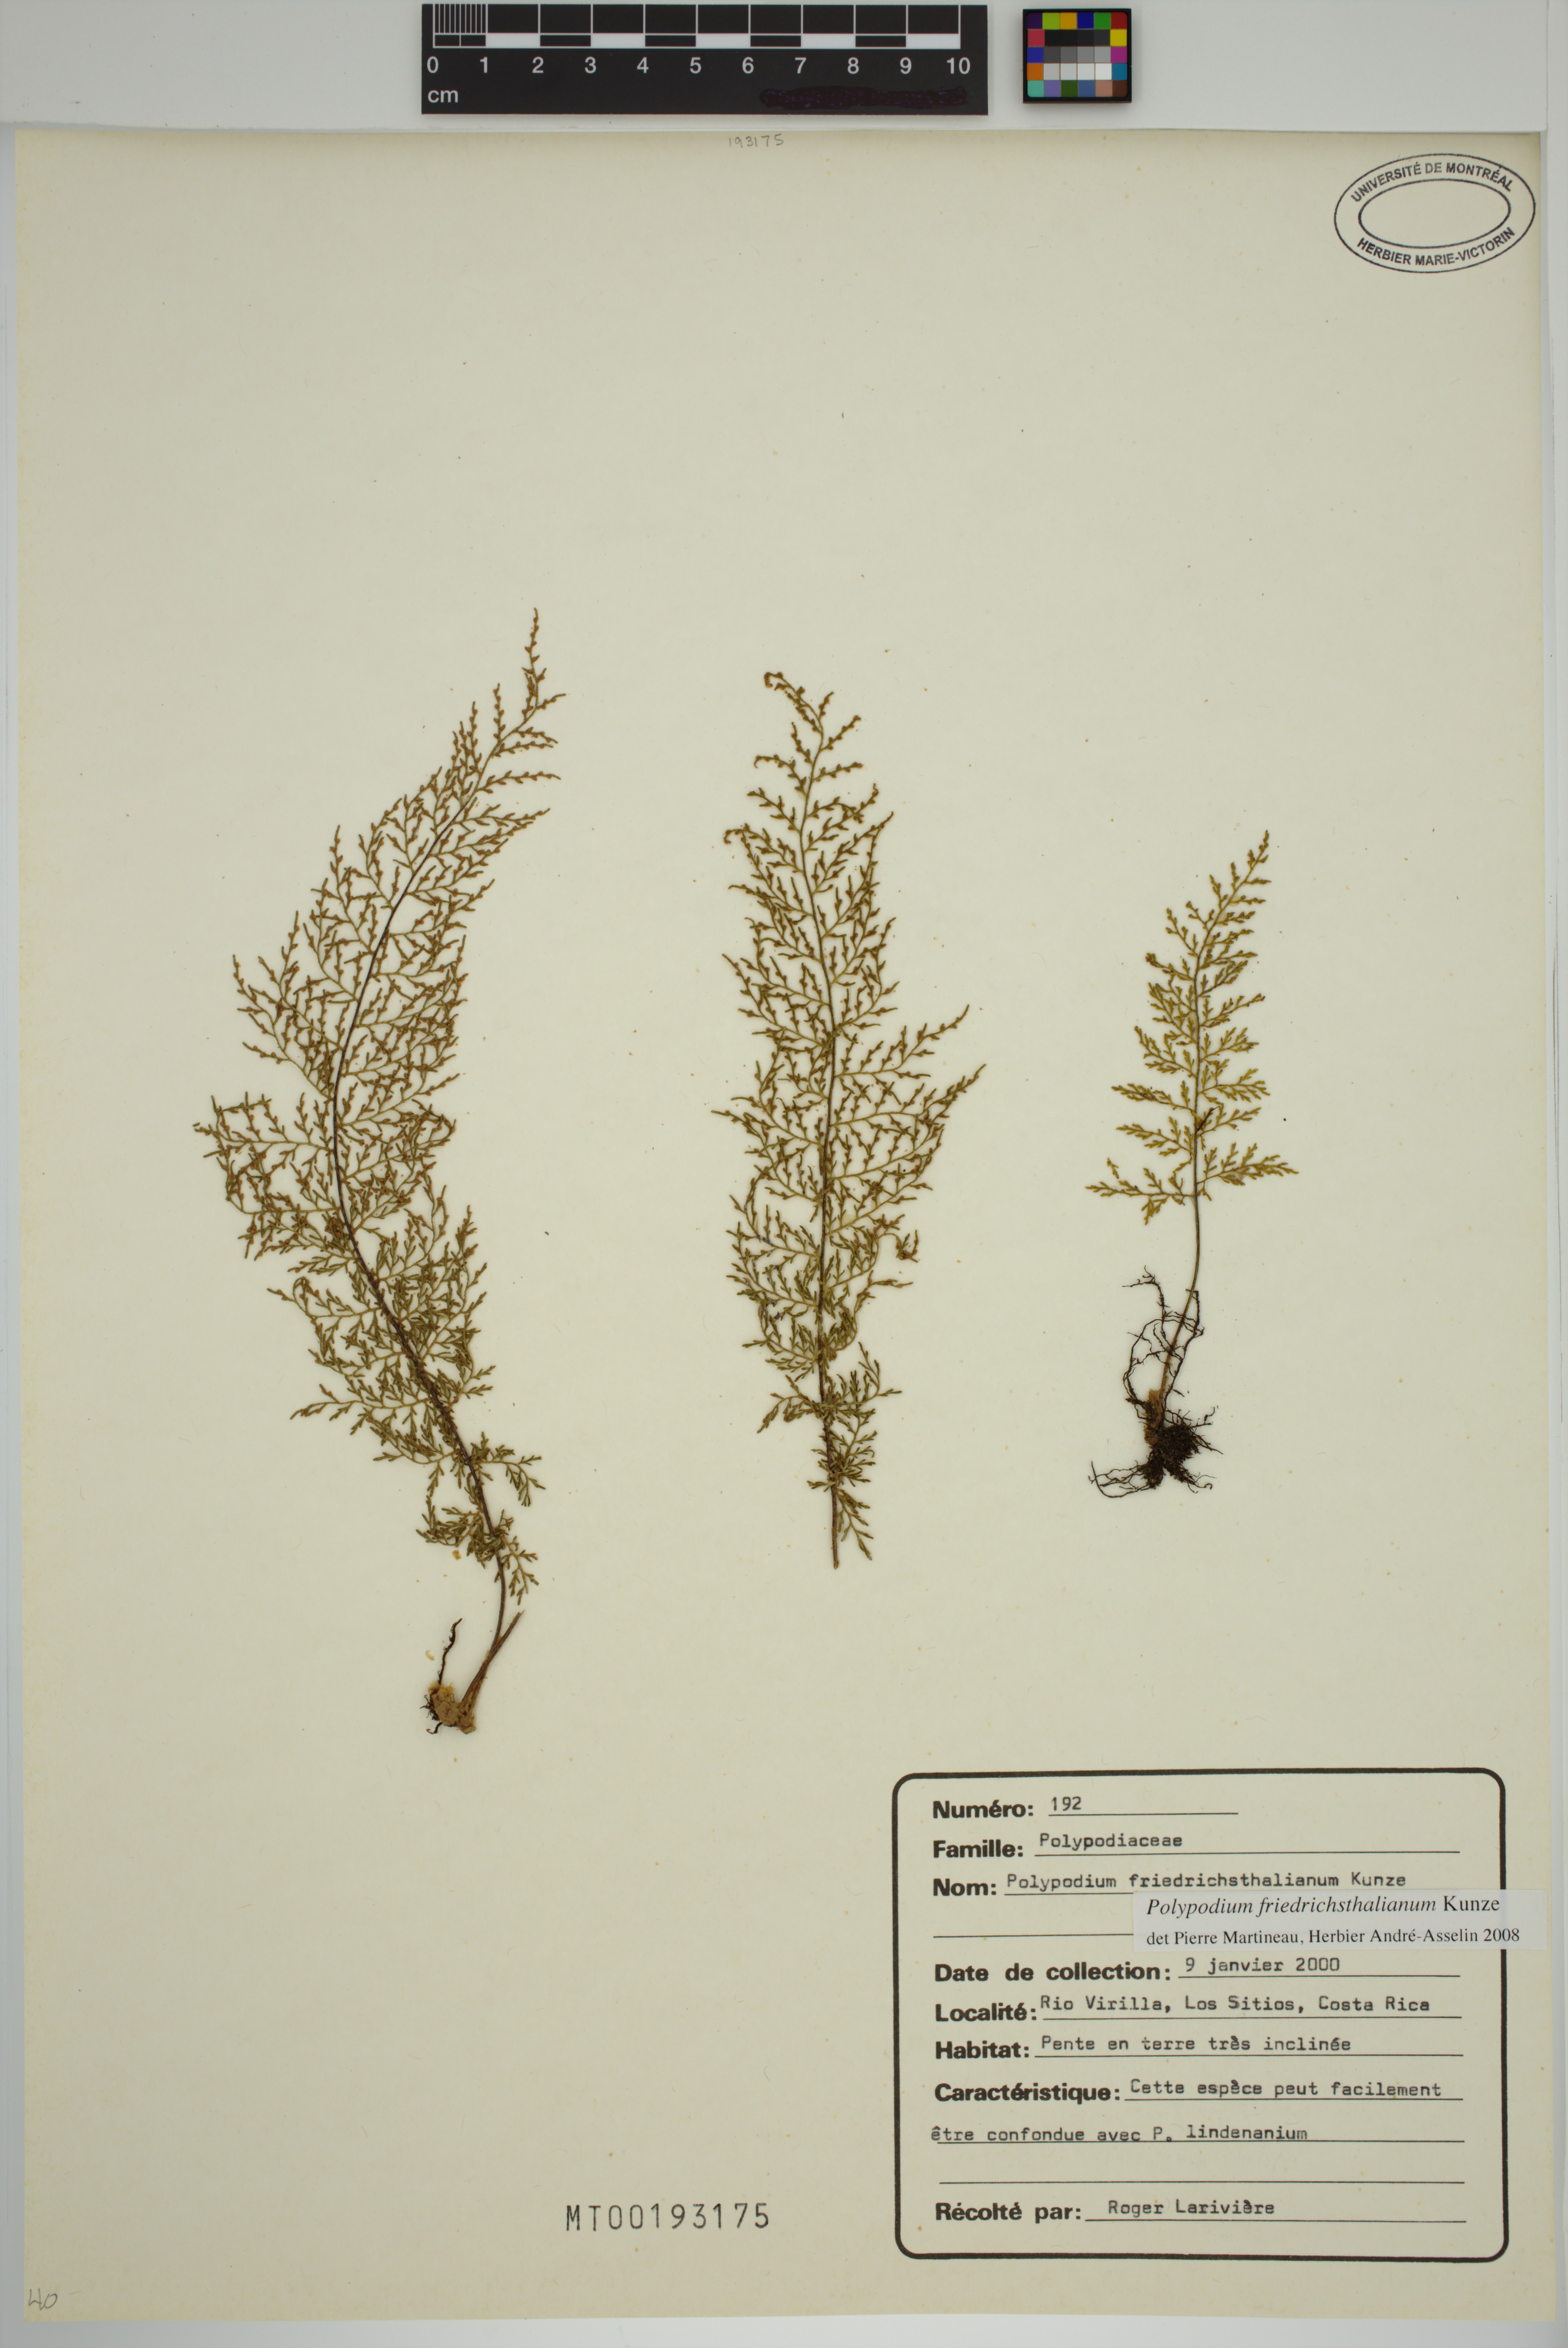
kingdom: Plantae
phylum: Tracheophyta
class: Polypodiopsida
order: Polypodiales
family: Polypodiaceae
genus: Pleopeltis
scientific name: Pleopeltis friedrichsthaliana
